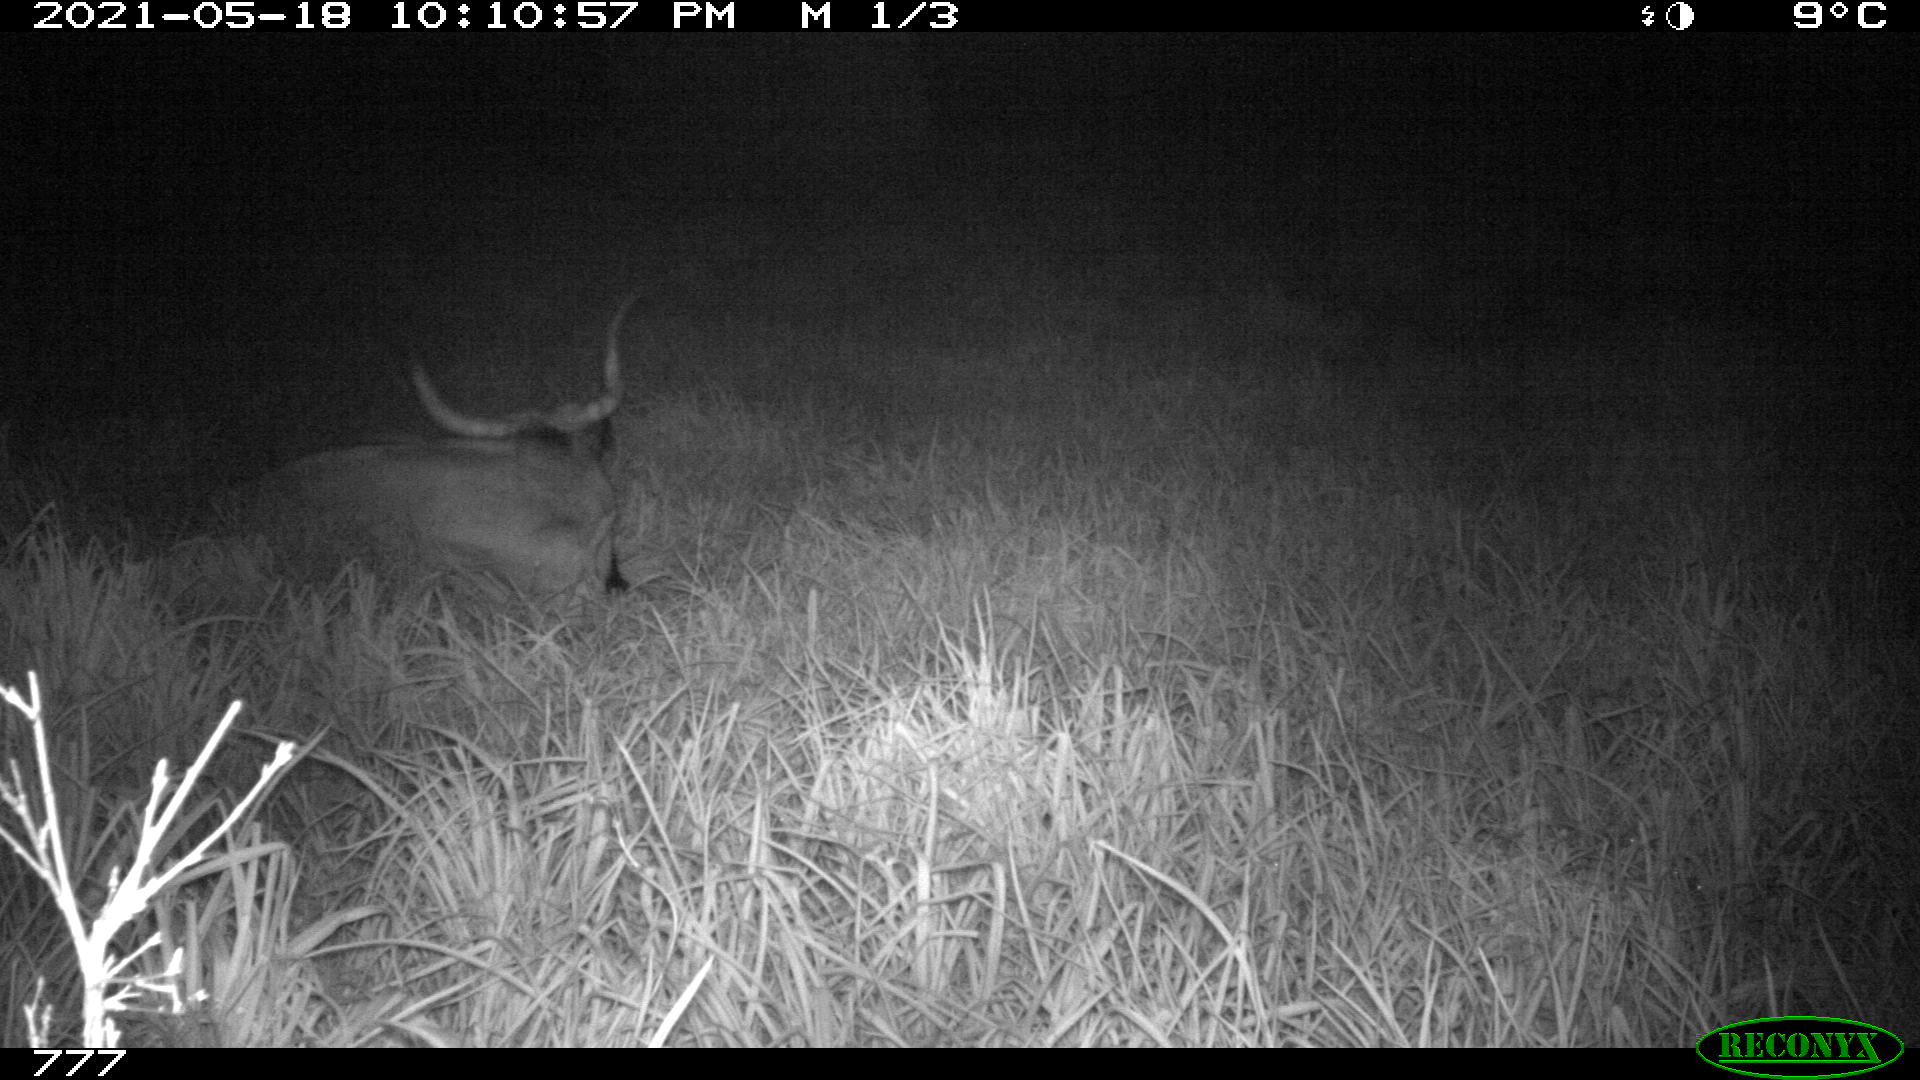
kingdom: Animalia
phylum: Chordata
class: Mammalia
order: Artiodactyla
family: Bovidae
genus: Bos
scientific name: Bos taurus
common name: Domesticated cattle
